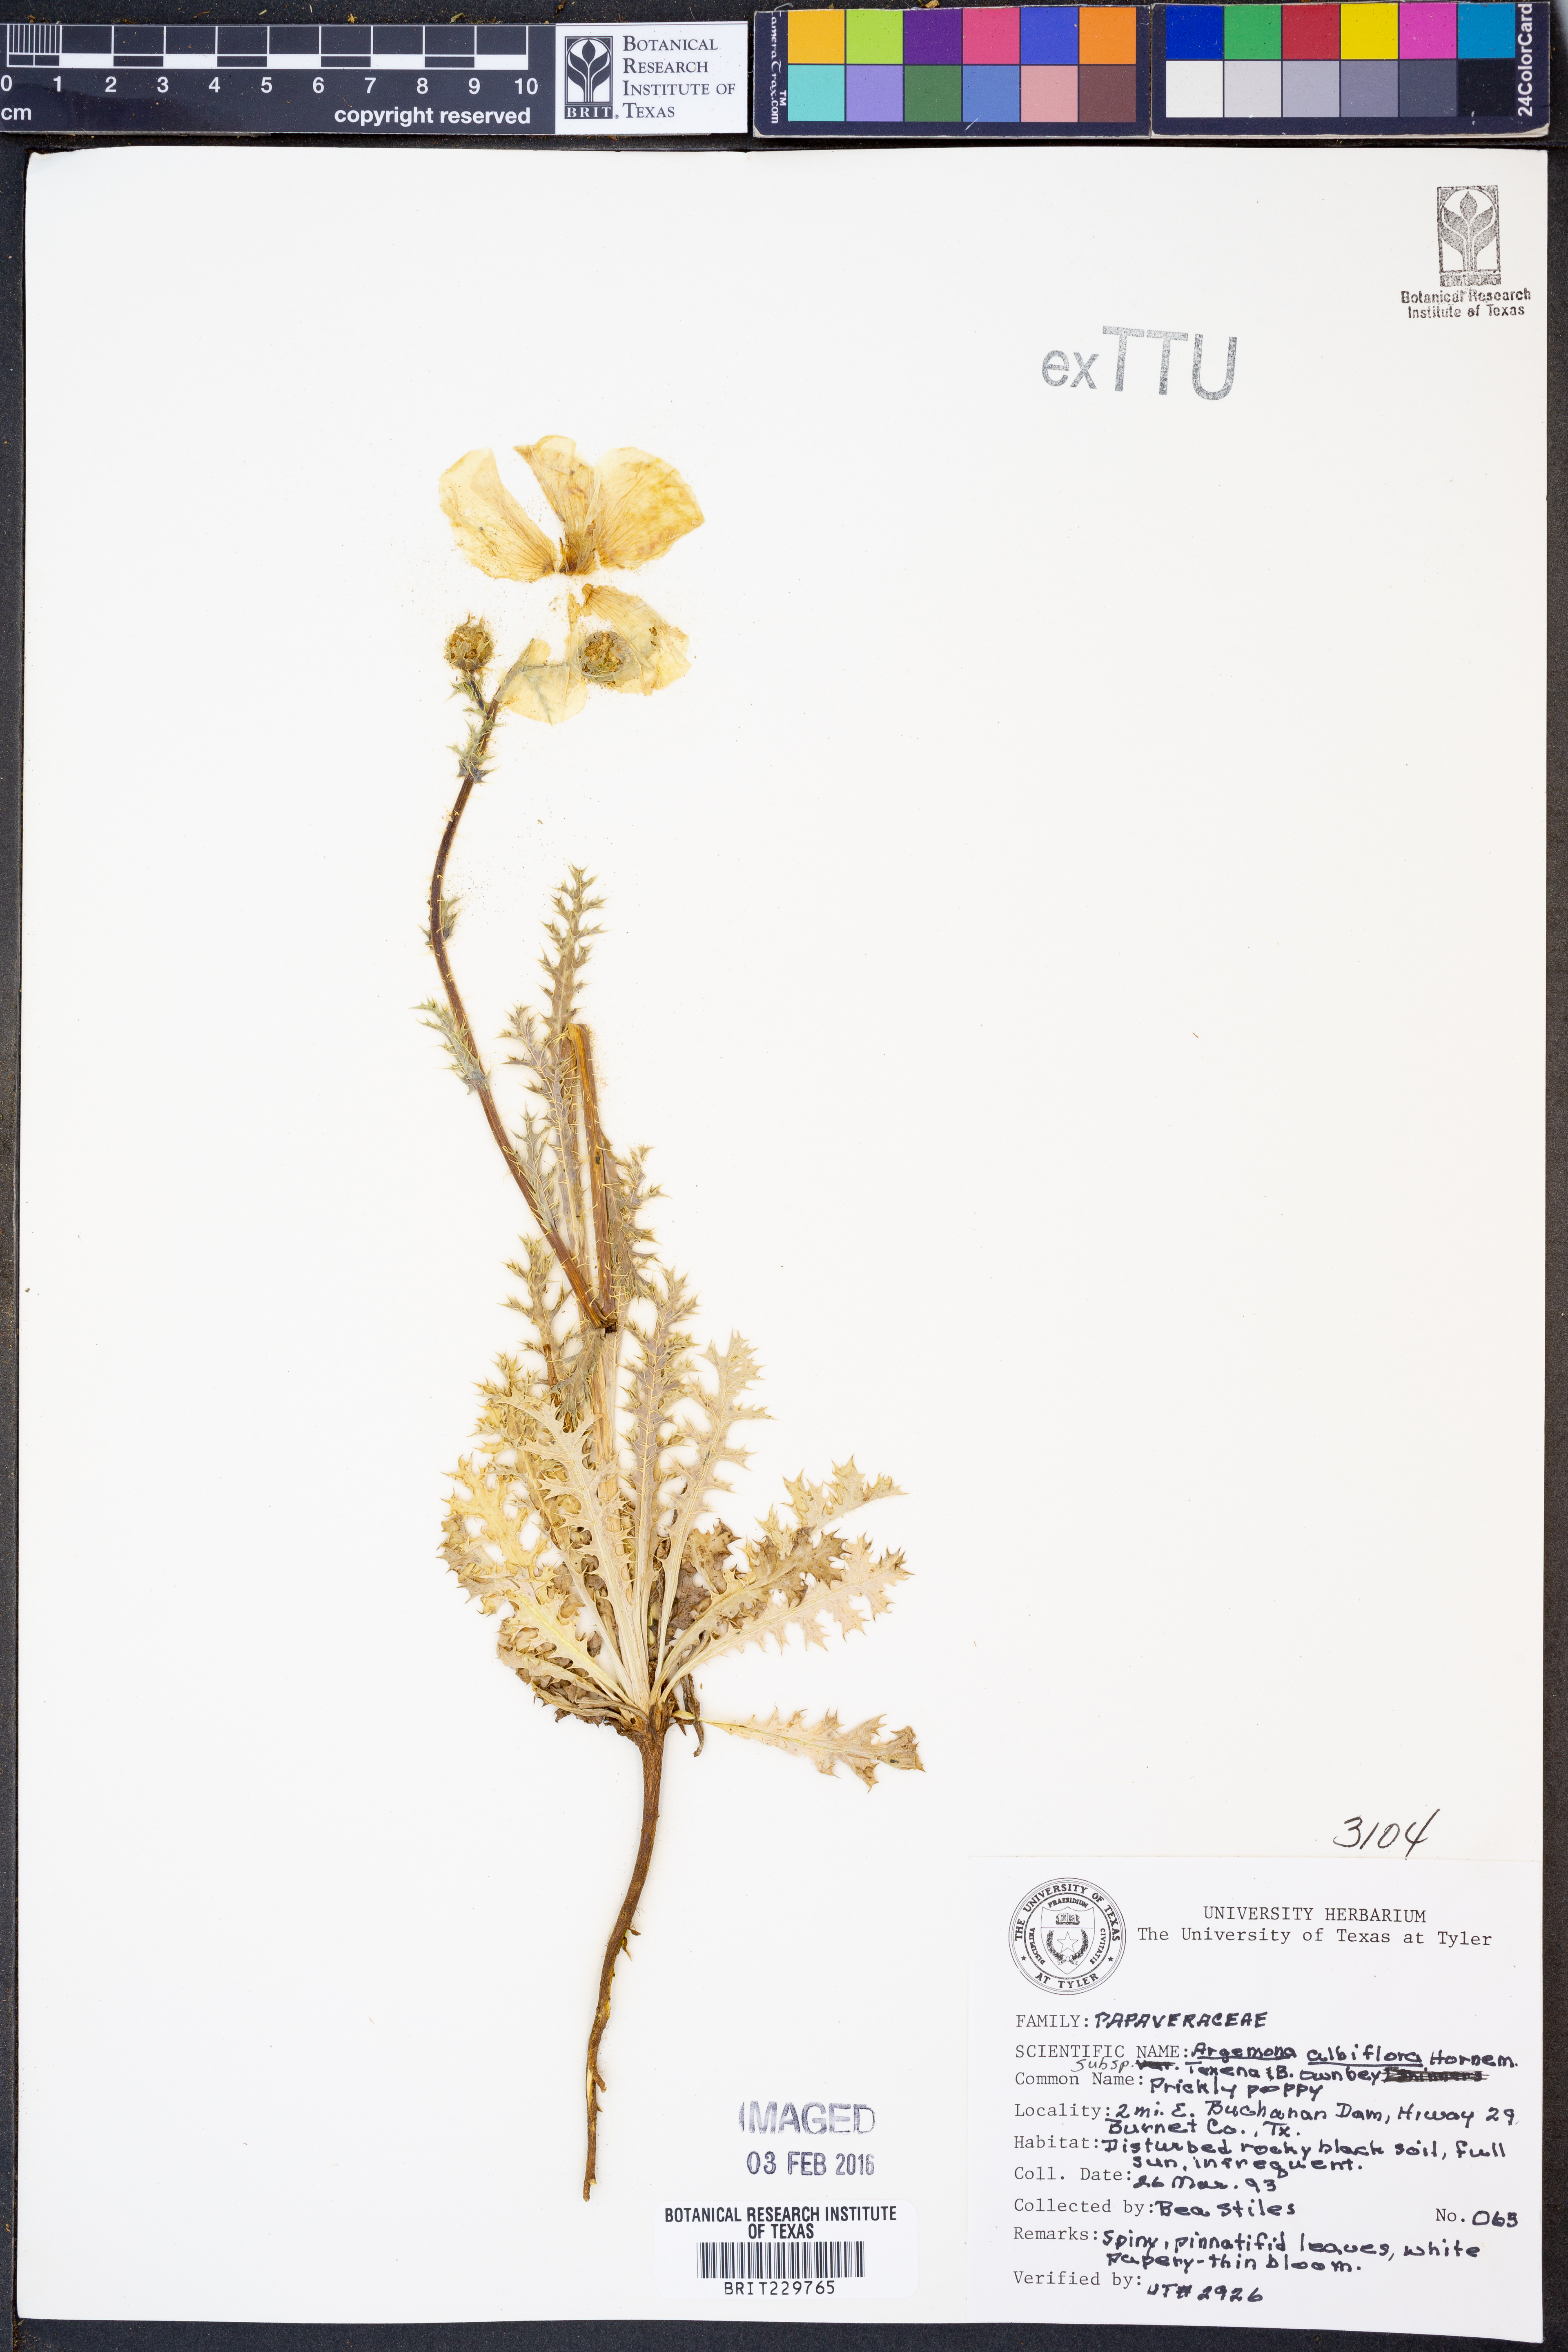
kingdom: Plantae
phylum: Tracheophyta
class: Magnoliopsida
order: Ranunculales
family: Papaveraceae
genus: Argemone
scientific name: Argemone albiflora
